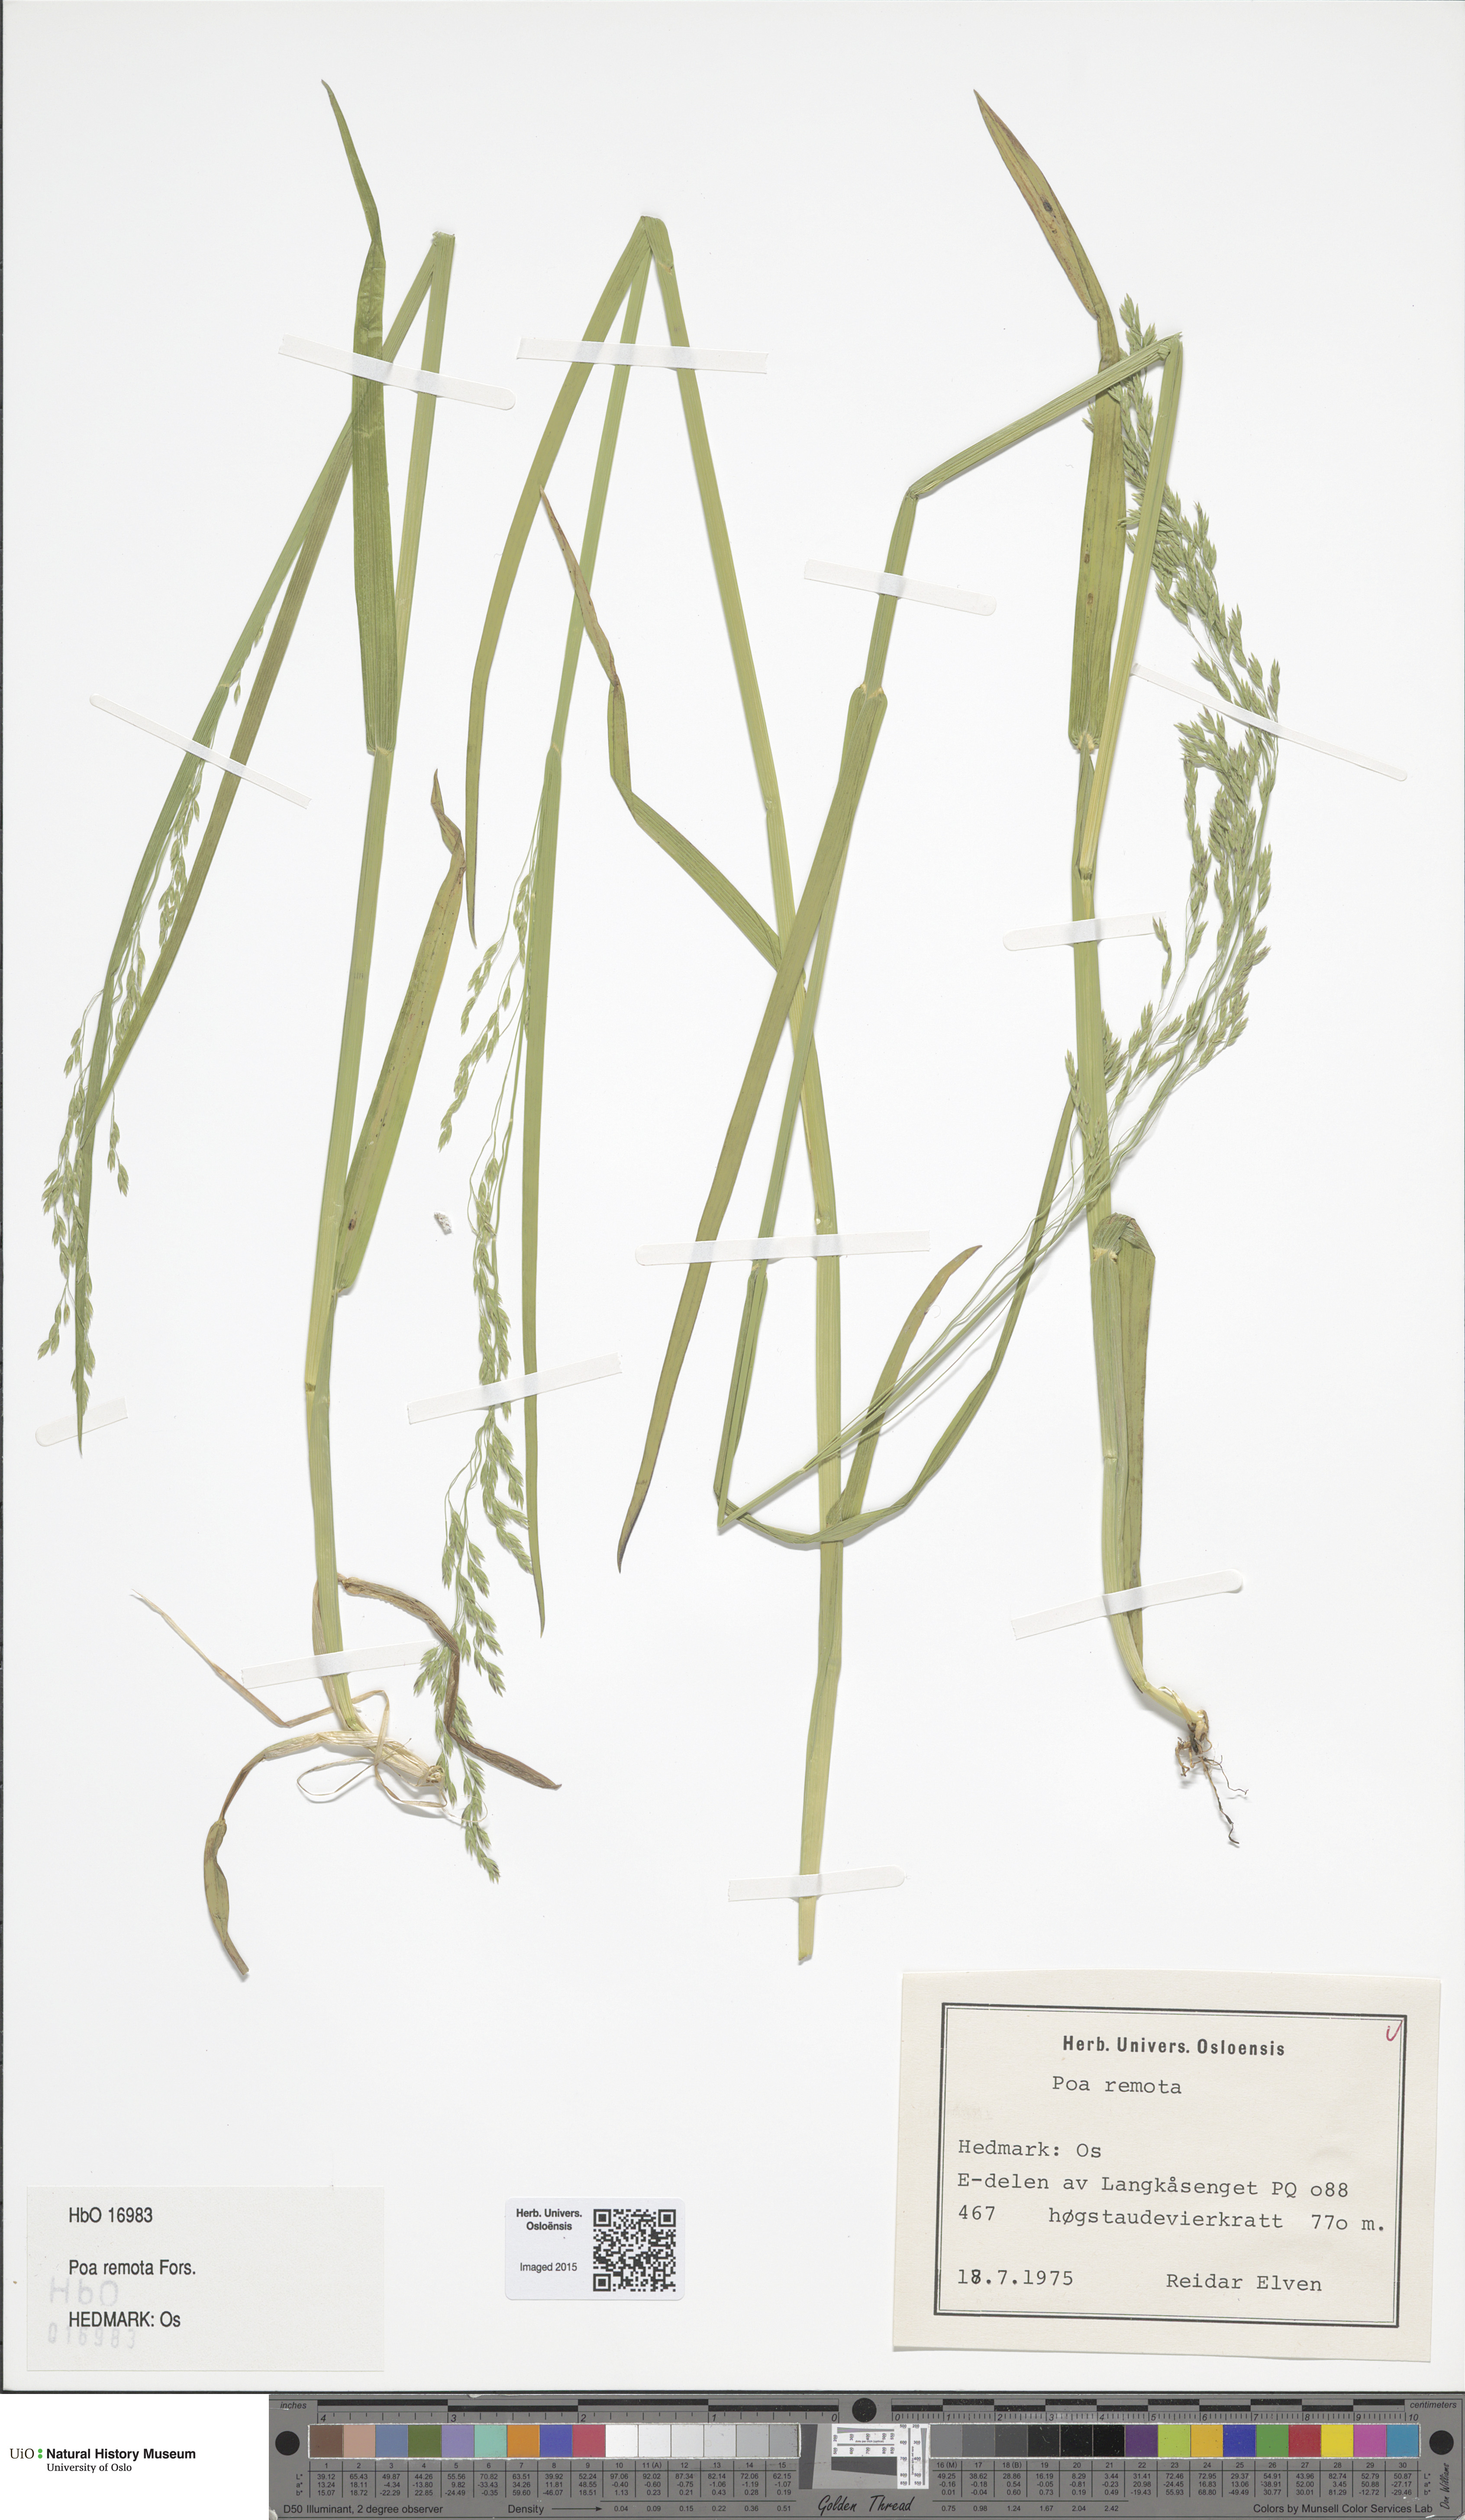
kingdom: Plantae
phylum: Tracheophyta
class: Liliopsida
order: Poales
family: Poaceae
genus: Poa
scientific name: Poa remota
